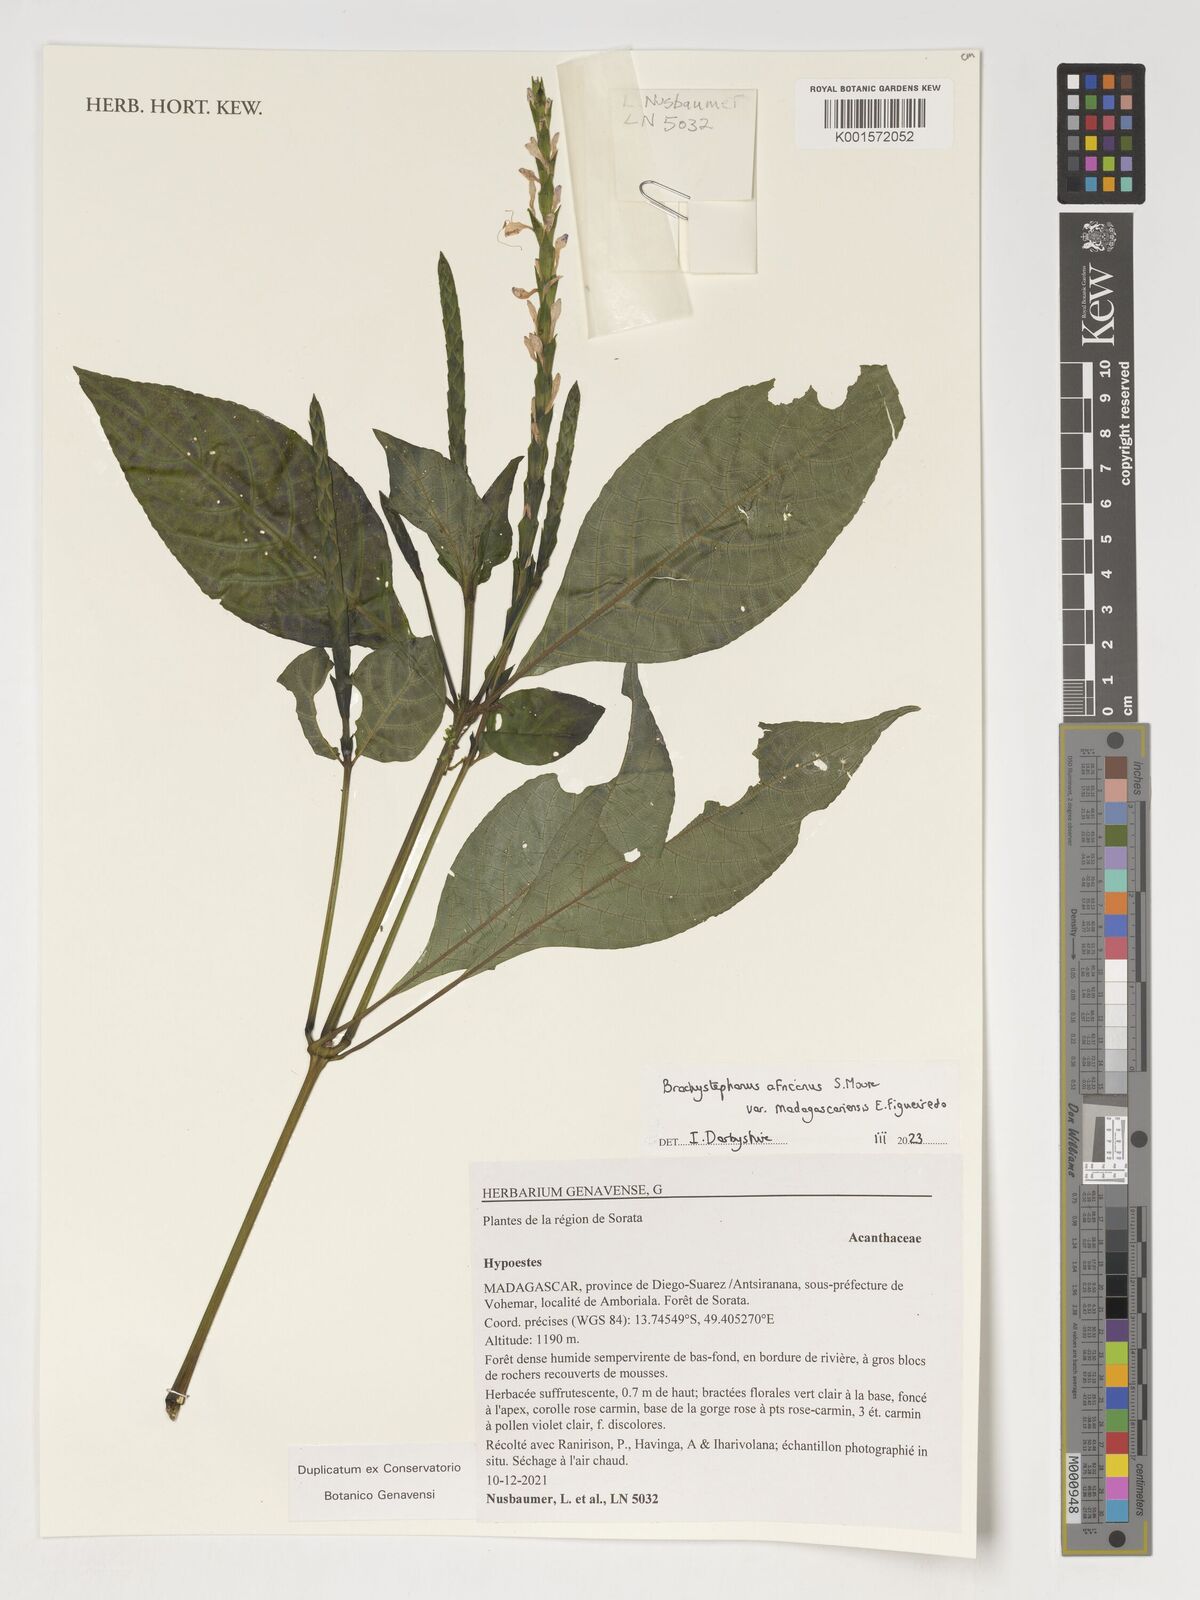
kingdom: Plantae
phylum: Tracheophyta
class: Magnoliopsida
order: Lamiales
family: Acanthaceae
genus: Hypoestes
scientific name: Hypoestes
